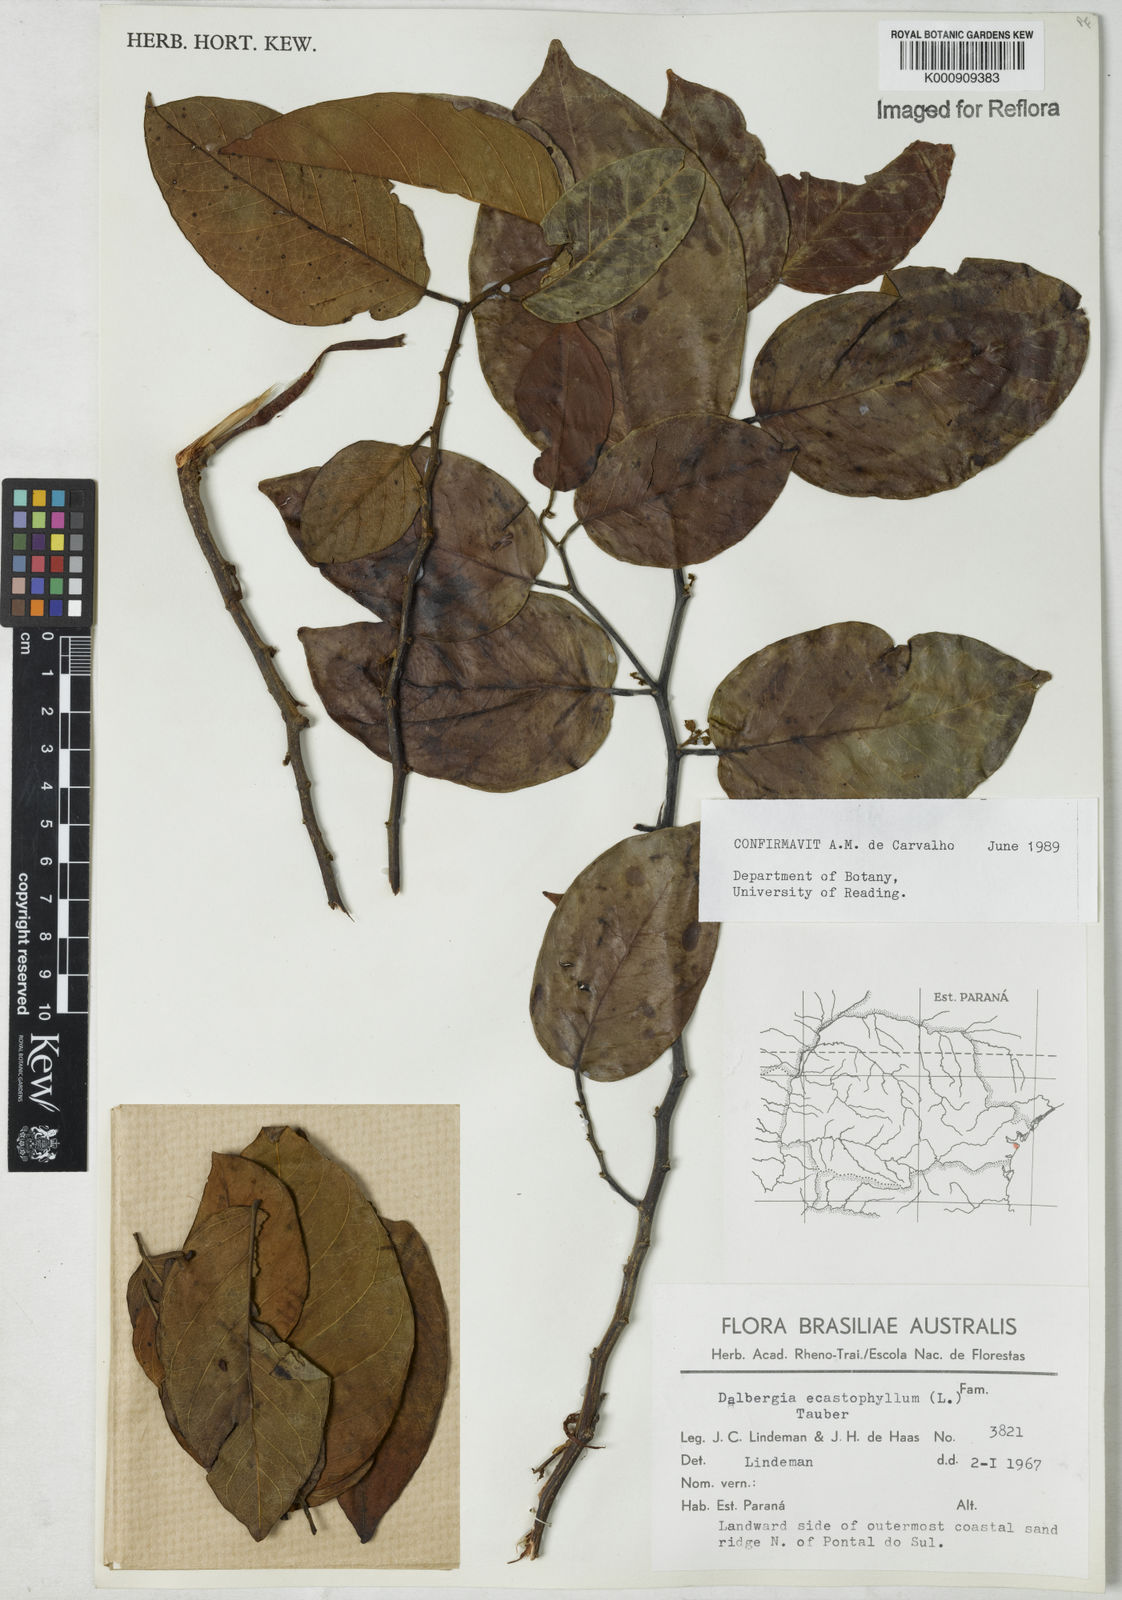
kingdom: Plantae
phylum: Tracheophyta
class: Magnoliopsida
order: Fabales
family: Fabaceae
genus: Dalbergia
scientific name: Dalbergia ecastaphyllum
